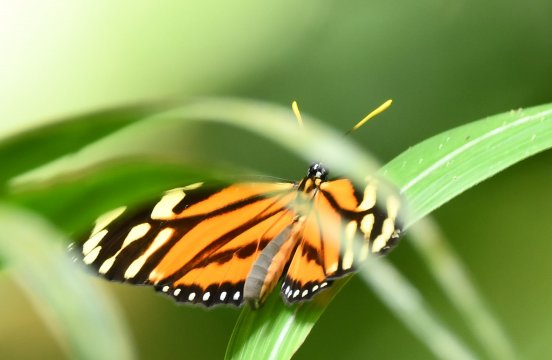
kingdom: Animalia
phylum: Arthropoda
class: Insecta
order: Lepidoptera
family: Nymphalidae
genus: Lycorea
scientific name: Lycorea cleobaea
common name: Tiger Mimic-Queen
